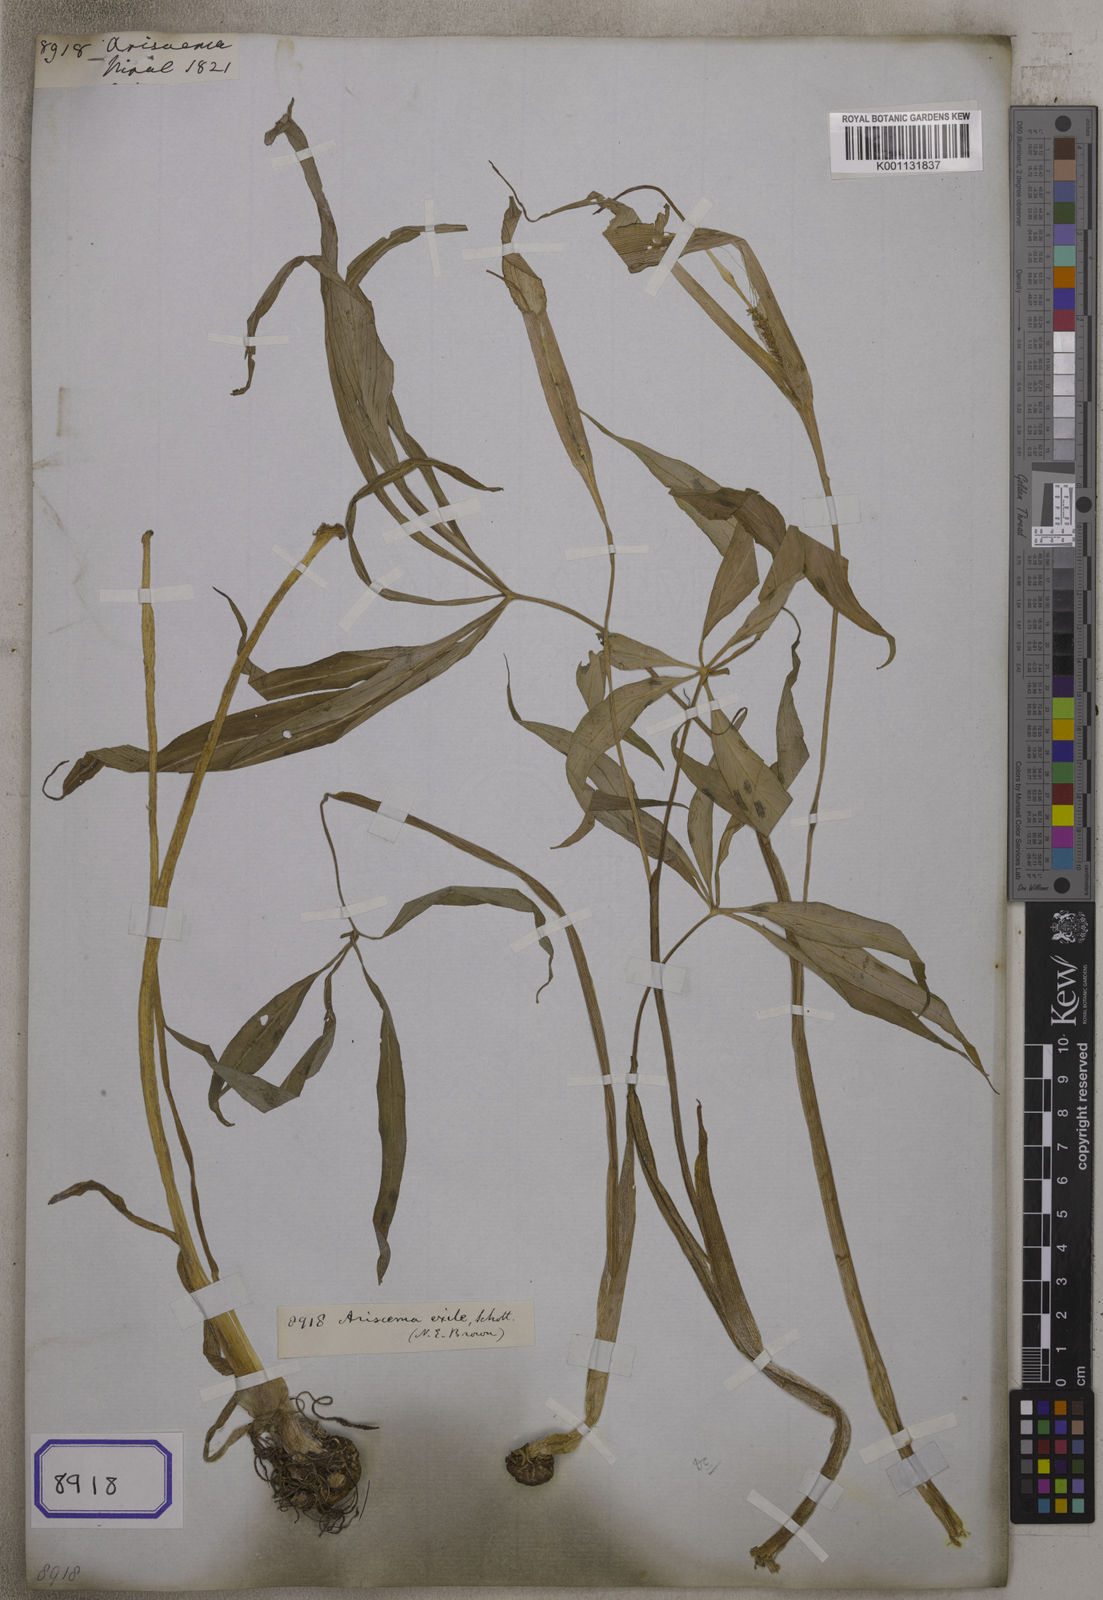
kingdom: Plantae
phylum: Tracheophyta
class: Liliopsida
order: Alismatales
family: Araceae
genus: Arisaema
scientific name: Arisaema
